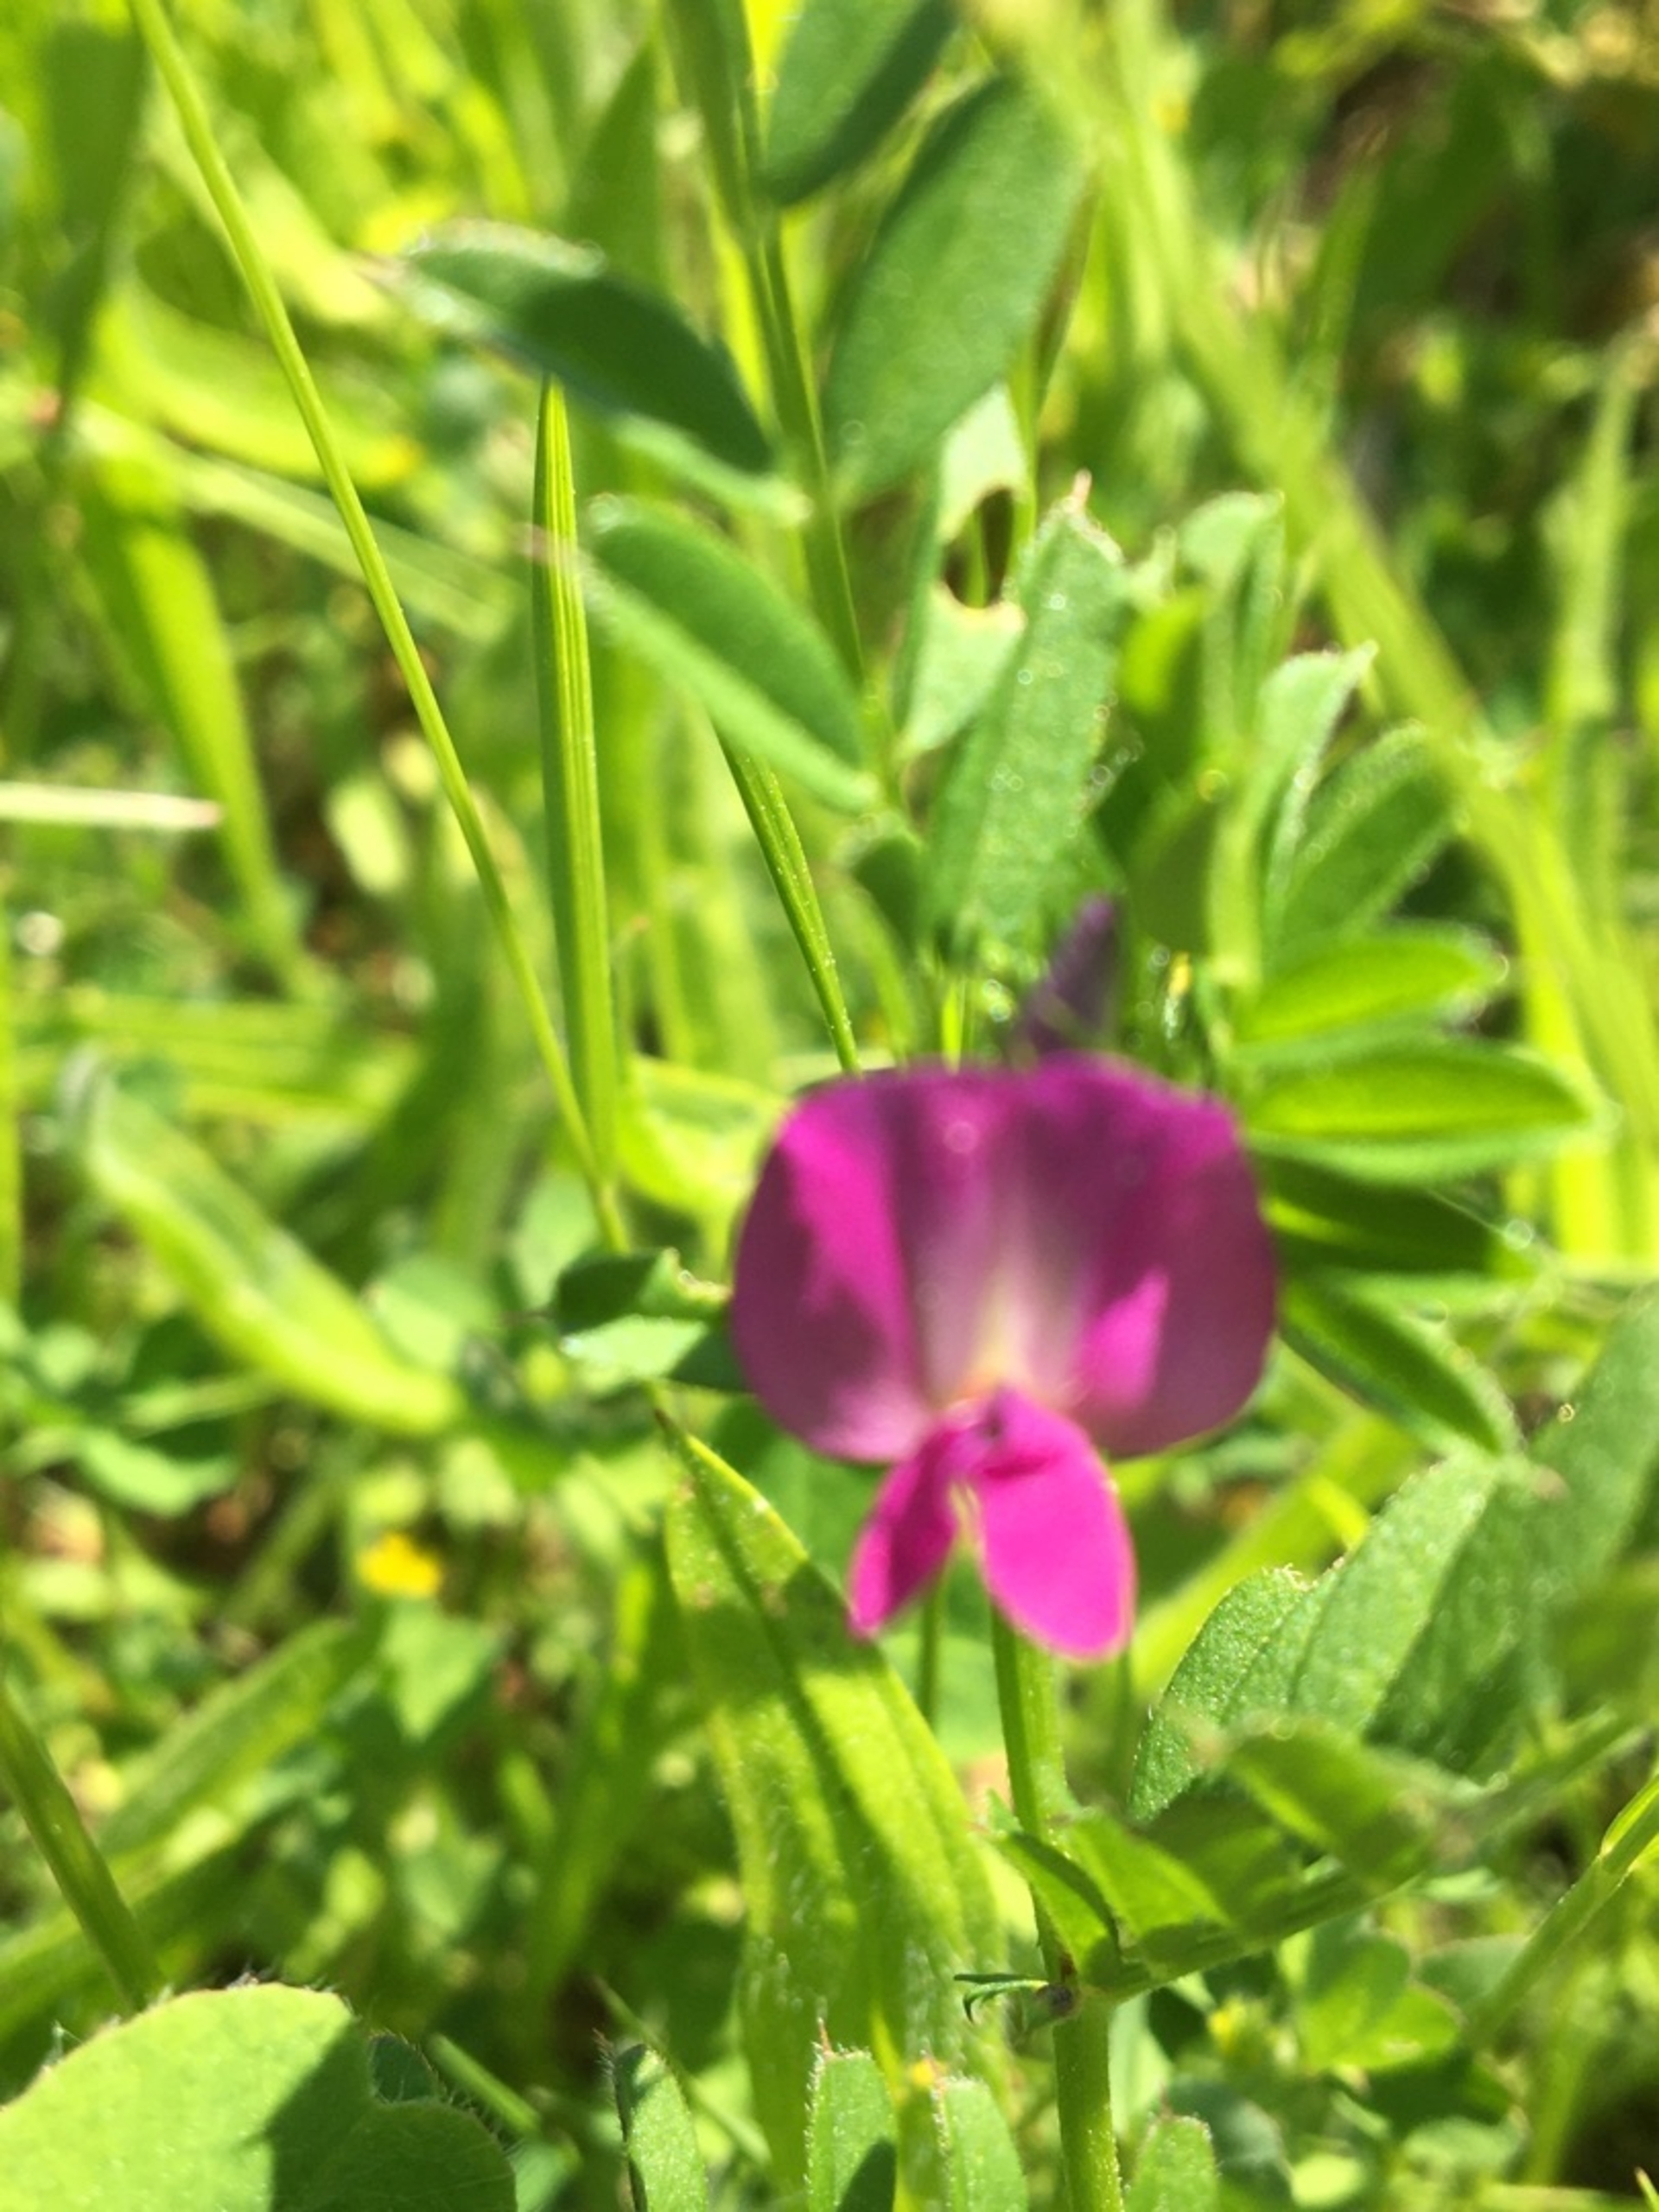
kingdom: Plantae
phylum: Tracheophyta
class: Magnoliopsida
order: Fabales
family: Fabaceae
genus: Vicia
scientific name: Vicia sativa
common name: Foder-vikke
